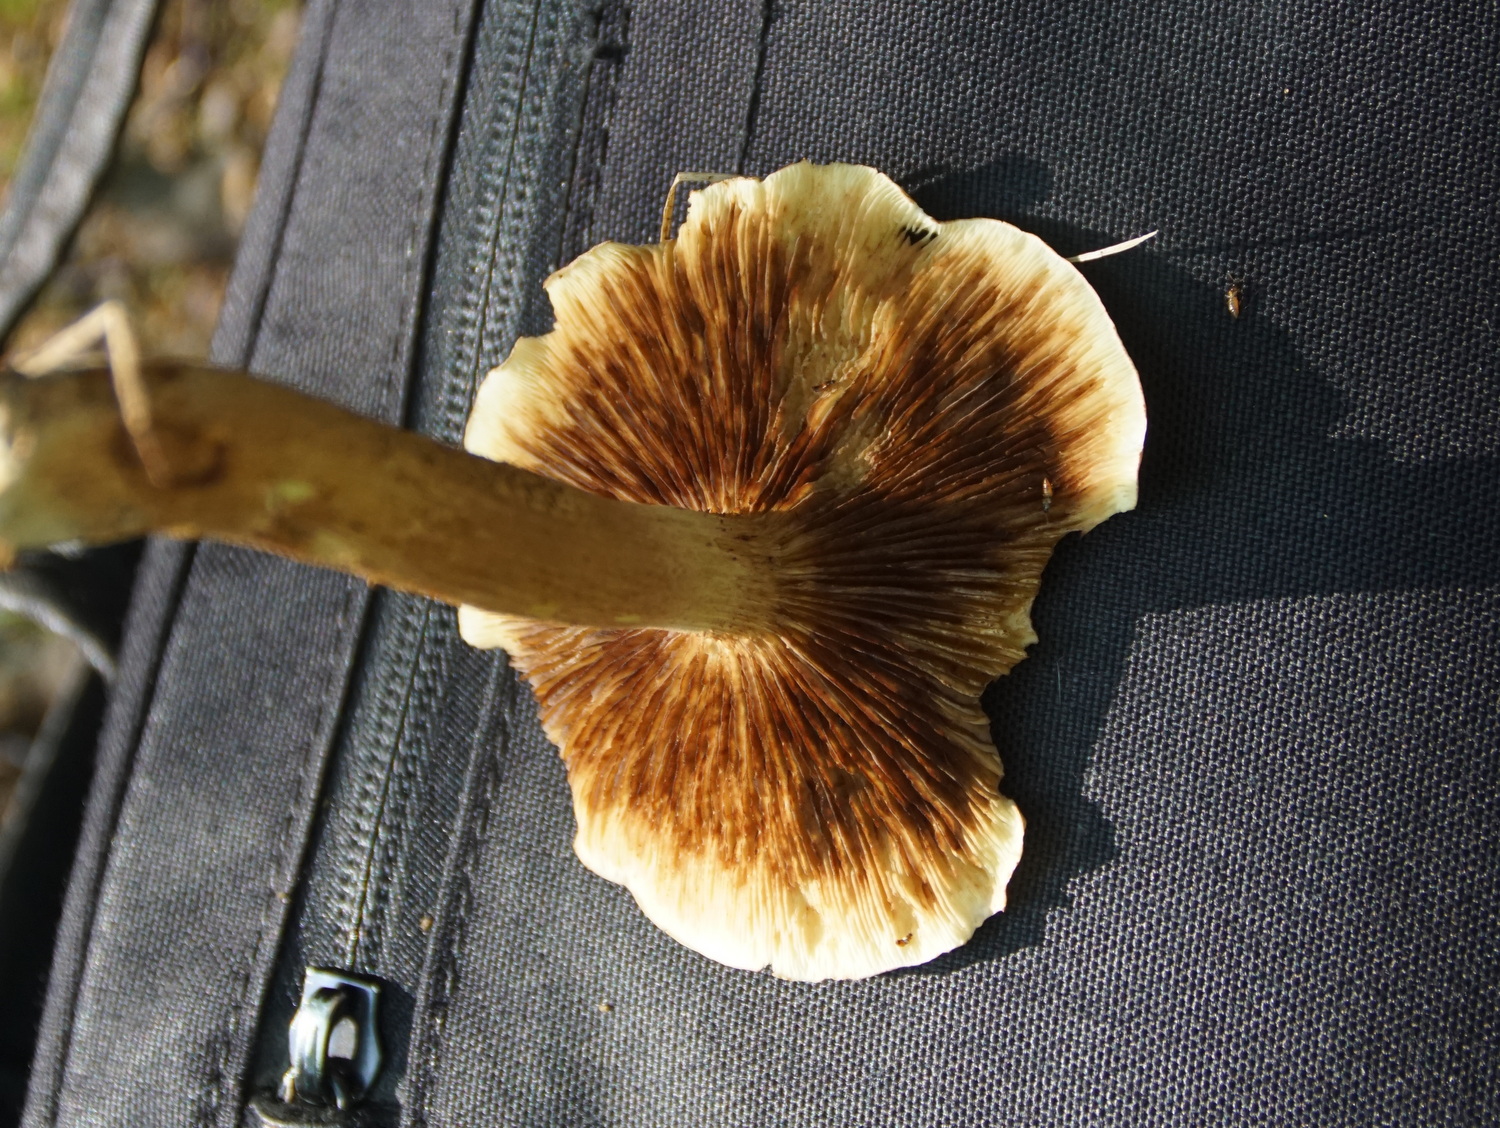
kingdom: Fungi
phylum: Basidiomycota
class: Agaricomycetes
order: Agaricales
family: Tricholomataceae
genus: Tricholoma
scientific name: Tricholoma fulvum
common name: birke-ridderhat
